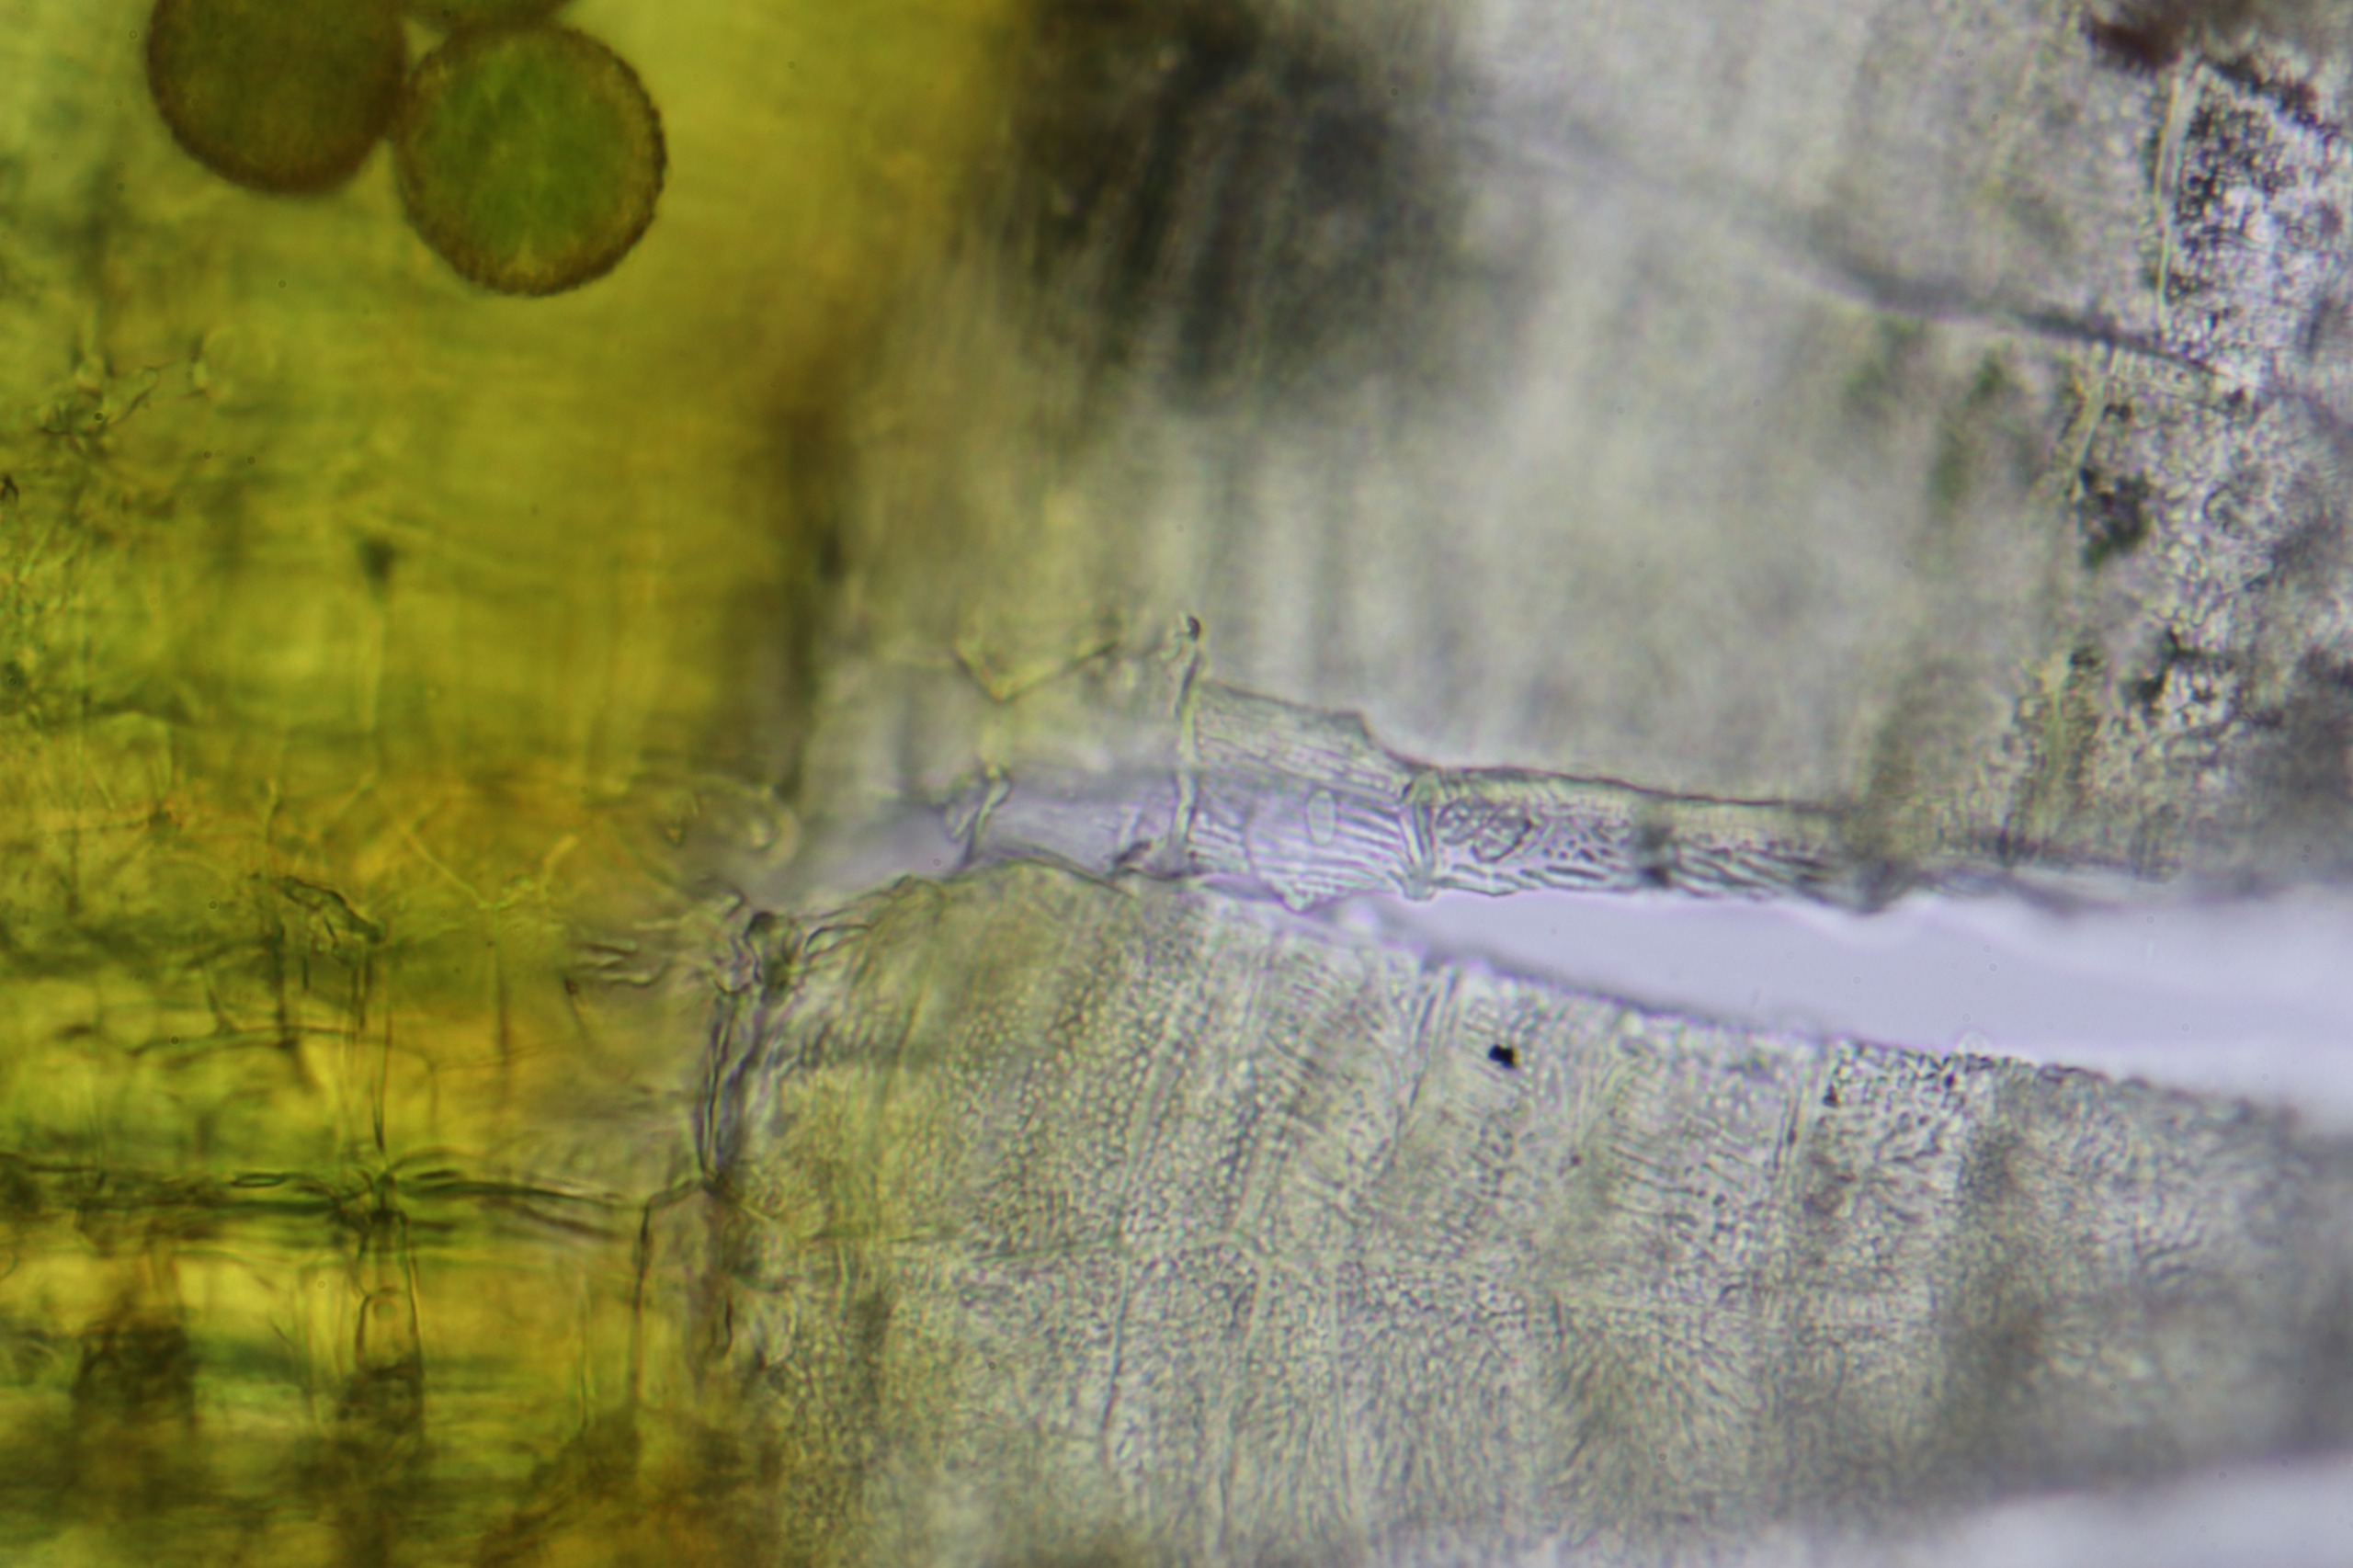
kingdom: Plantae
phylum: Bryophyta
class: Bryopsida
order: Orthotrichales
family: Orthotrichaceae
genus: Ulota
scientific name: Ulota bruchii
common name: Bruchs låddenhætte
